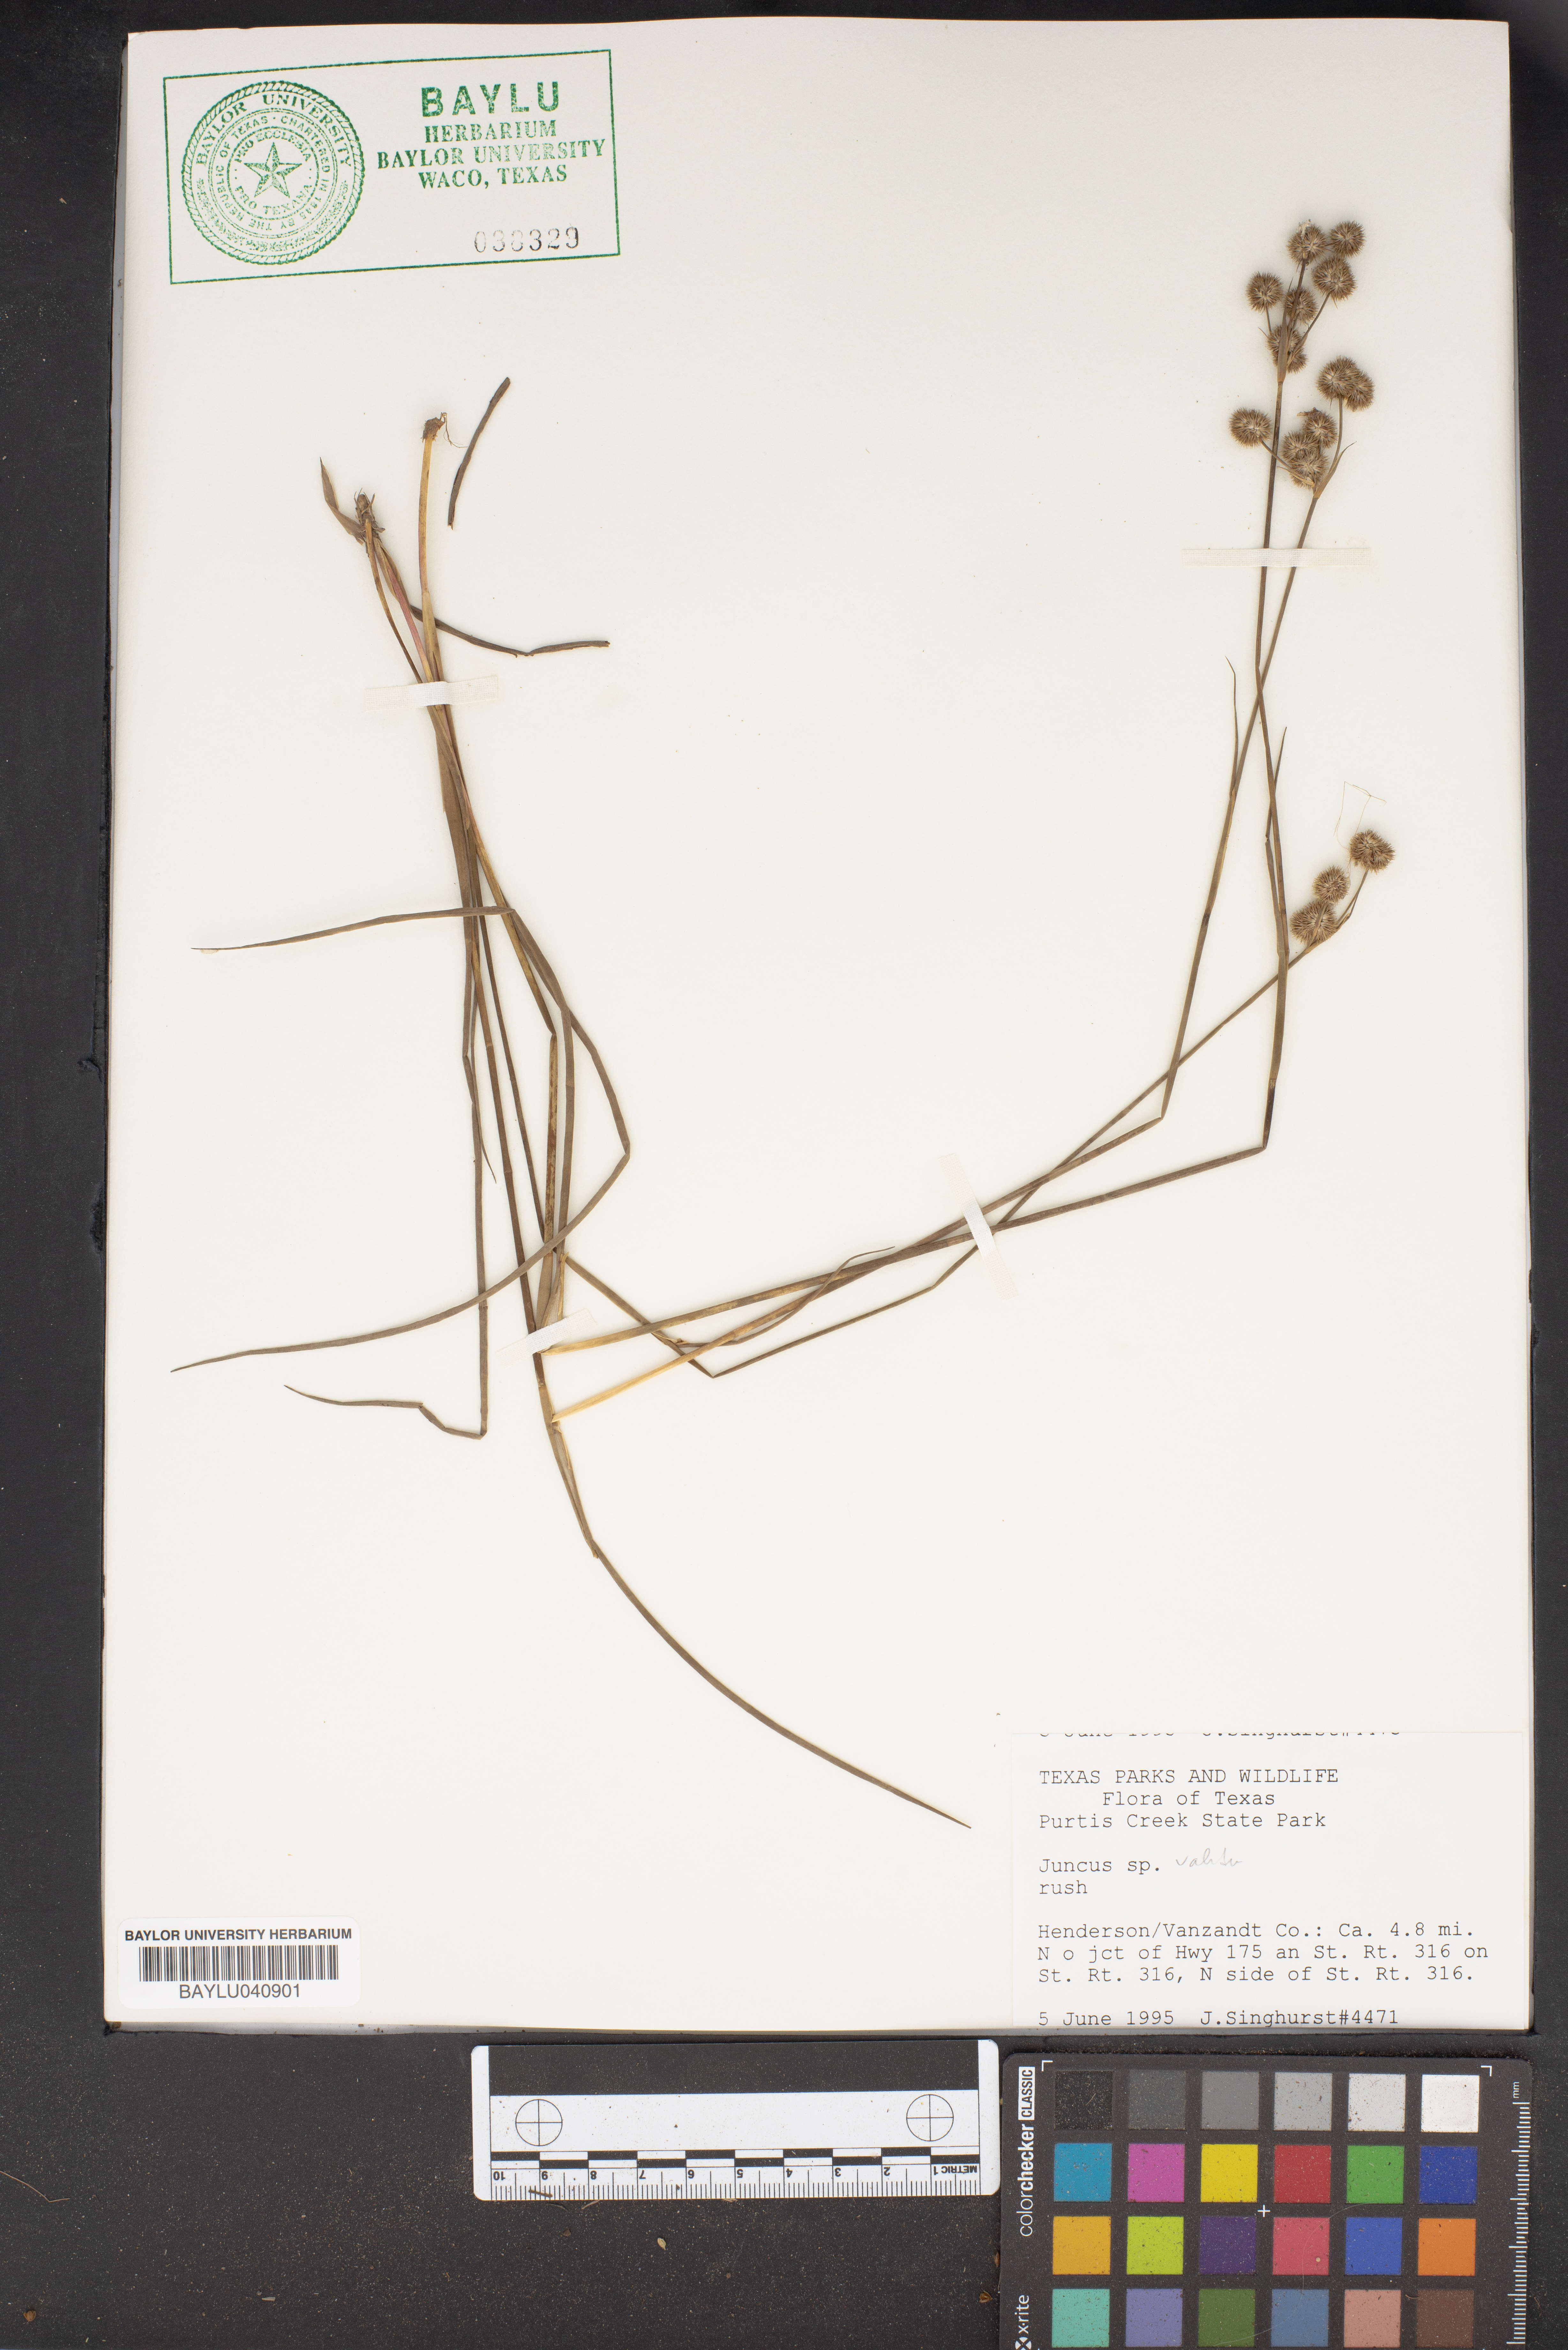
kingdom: Plantae
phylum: Tracheophyta
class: Liliopsida
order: Poales
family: Juncaceae
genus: Juncus
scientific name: Juncus validus
